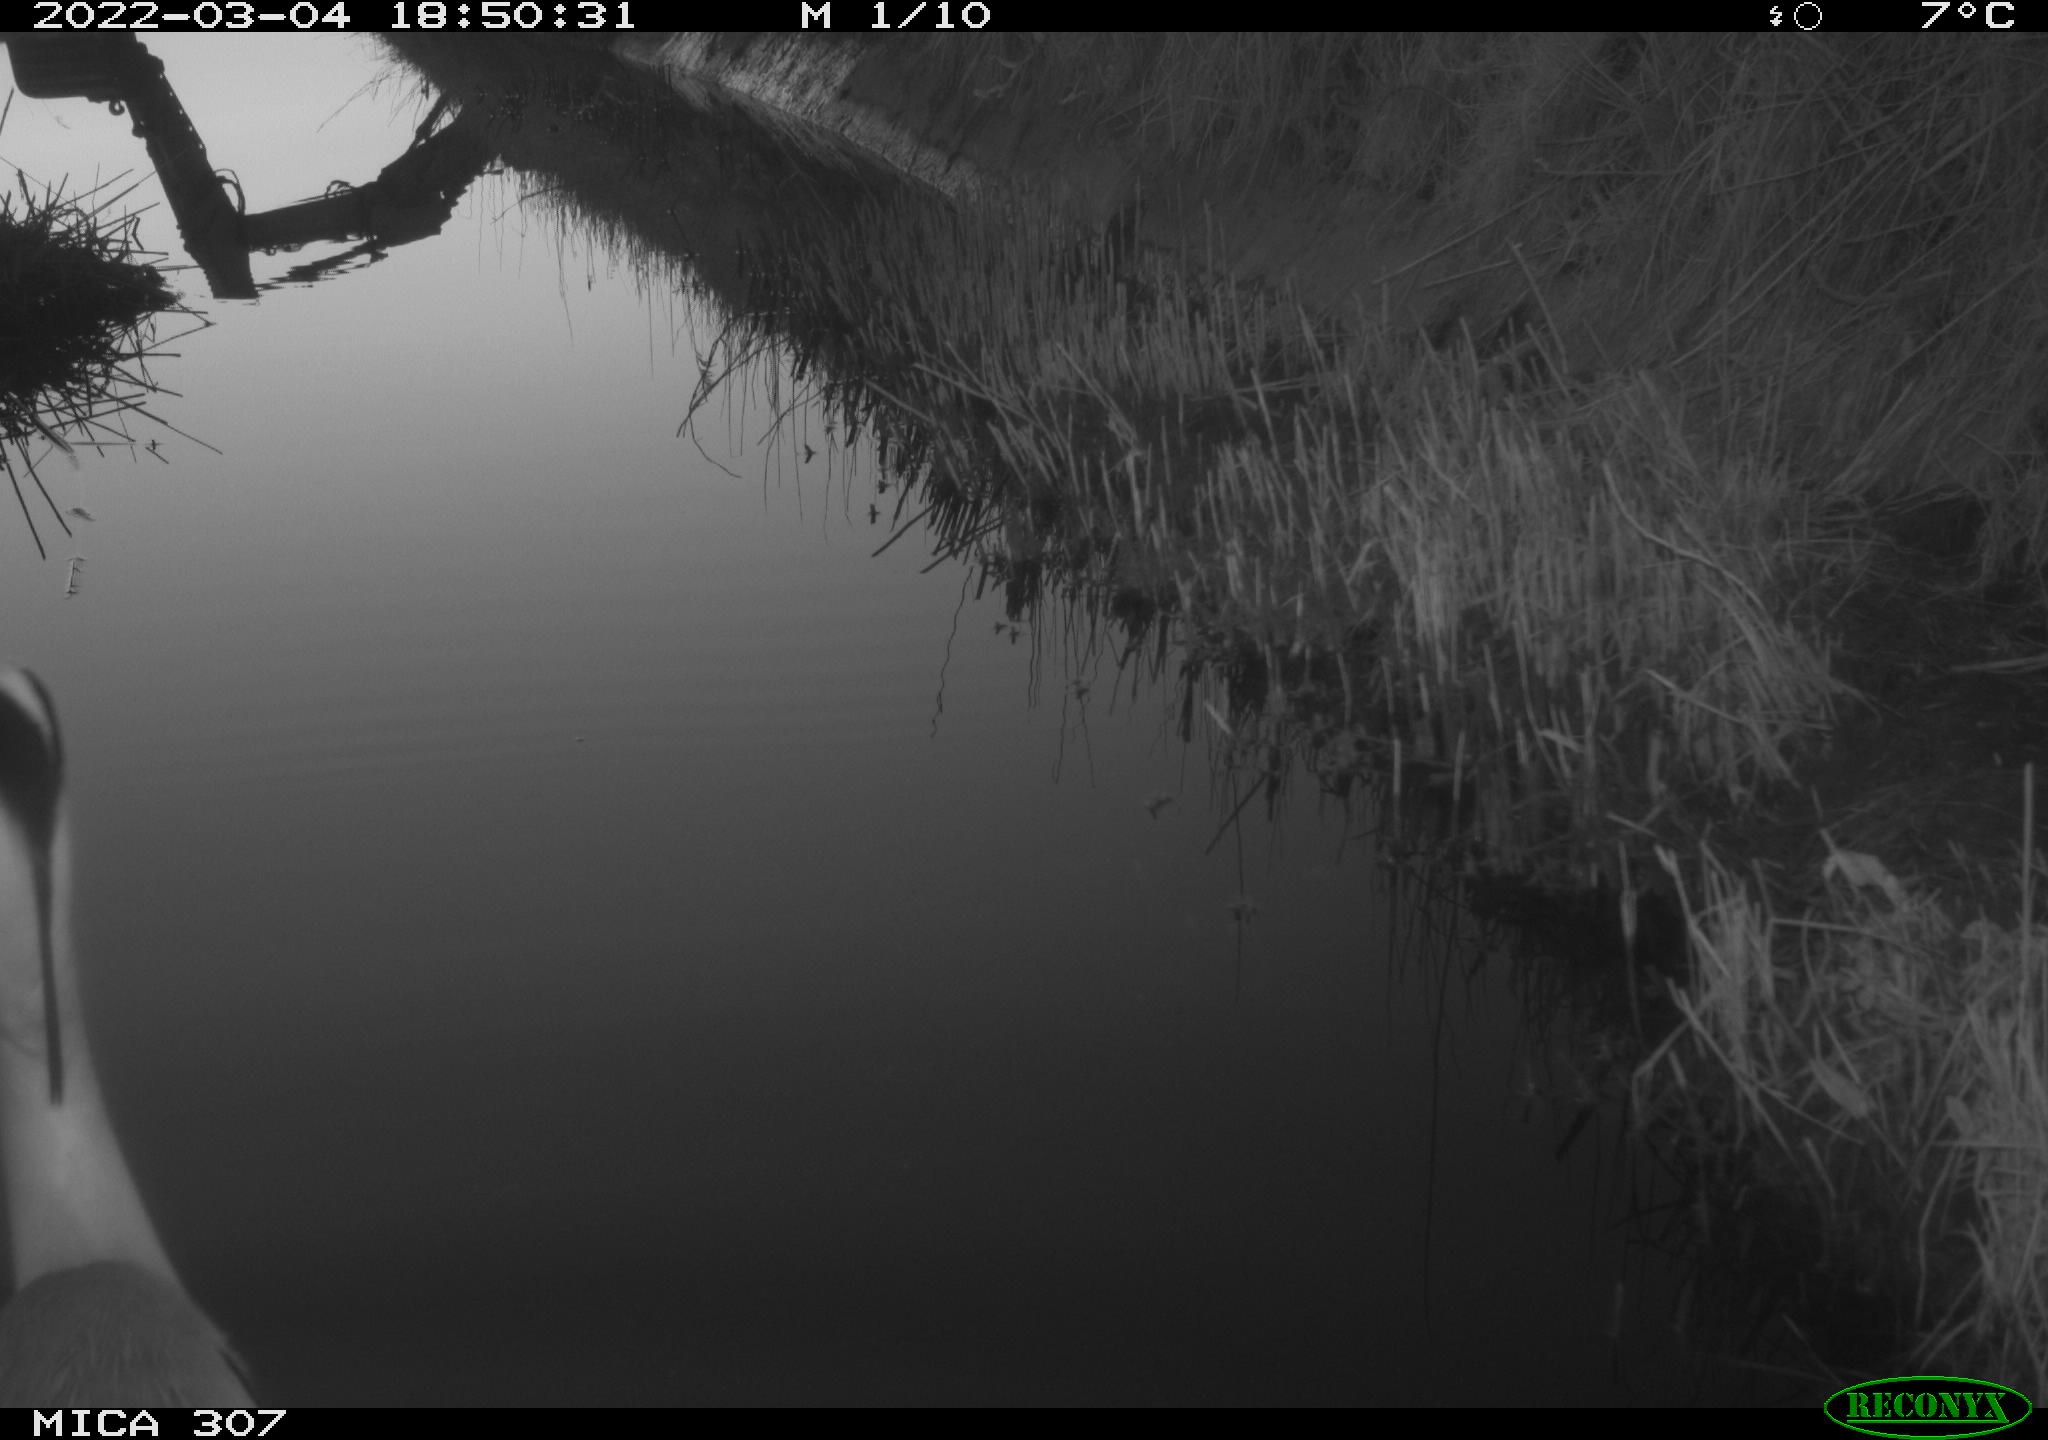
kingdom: Animalia
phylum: Chordata
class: Aves
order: Pelecaniformes
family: Ardeidae
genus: Ardea
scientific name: Ardea
